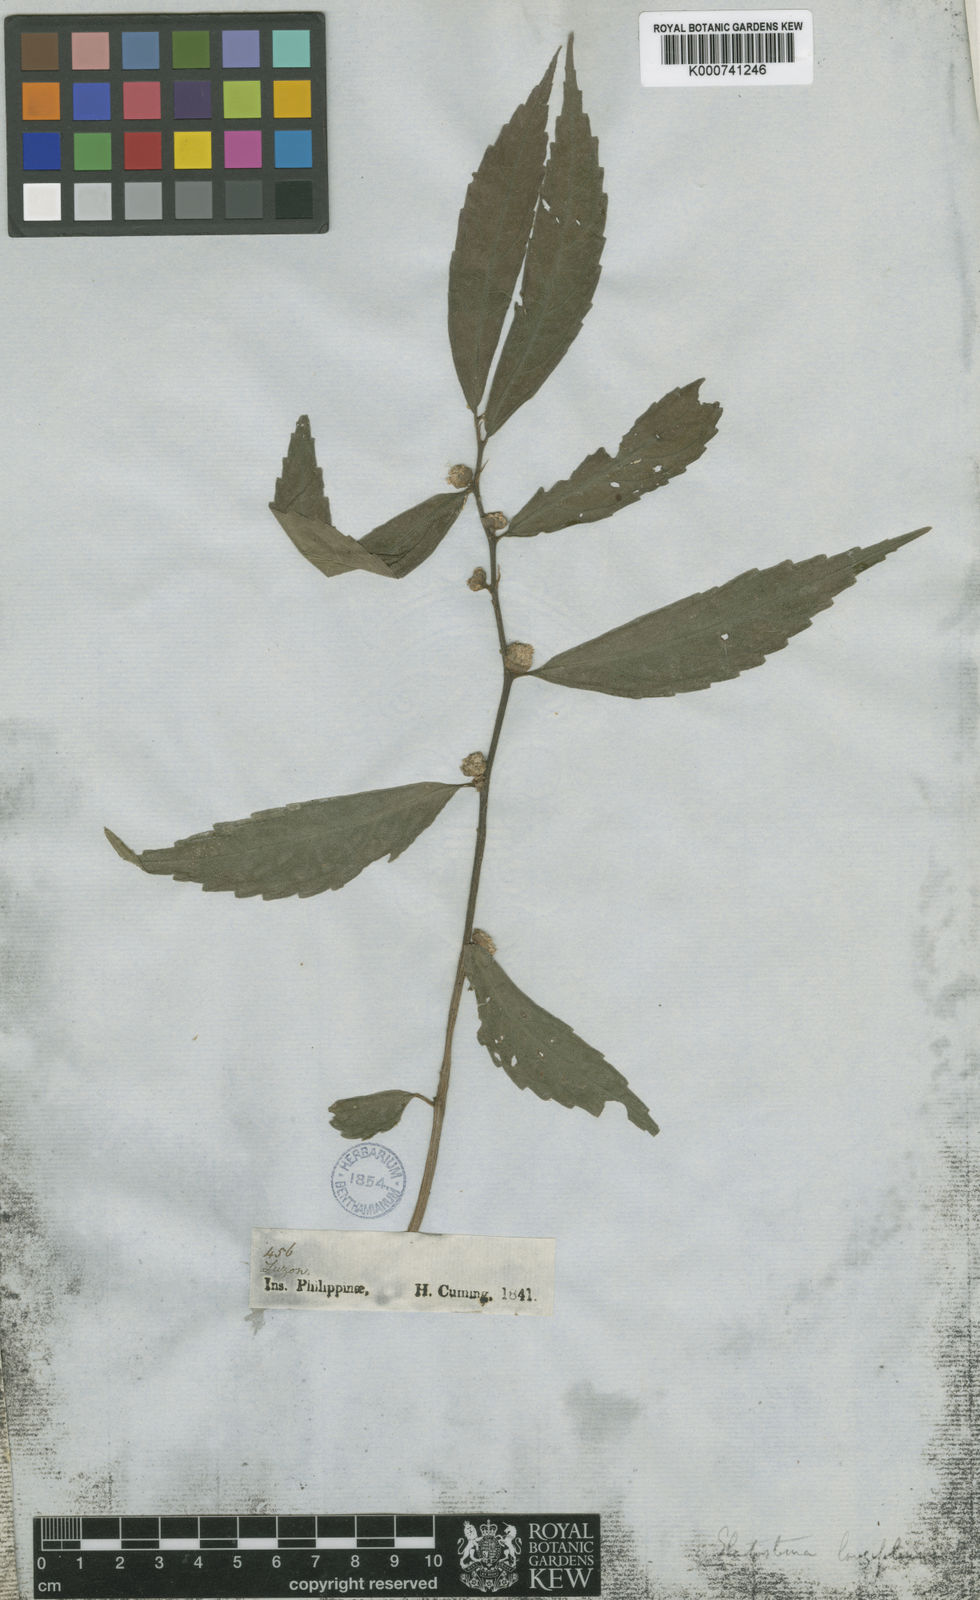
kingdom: Plantae
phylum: Tracheophyta
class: Magnoliopsida
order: Rosales
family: Urticaceae
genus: Elatostema
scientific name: Elatostema longifolium
